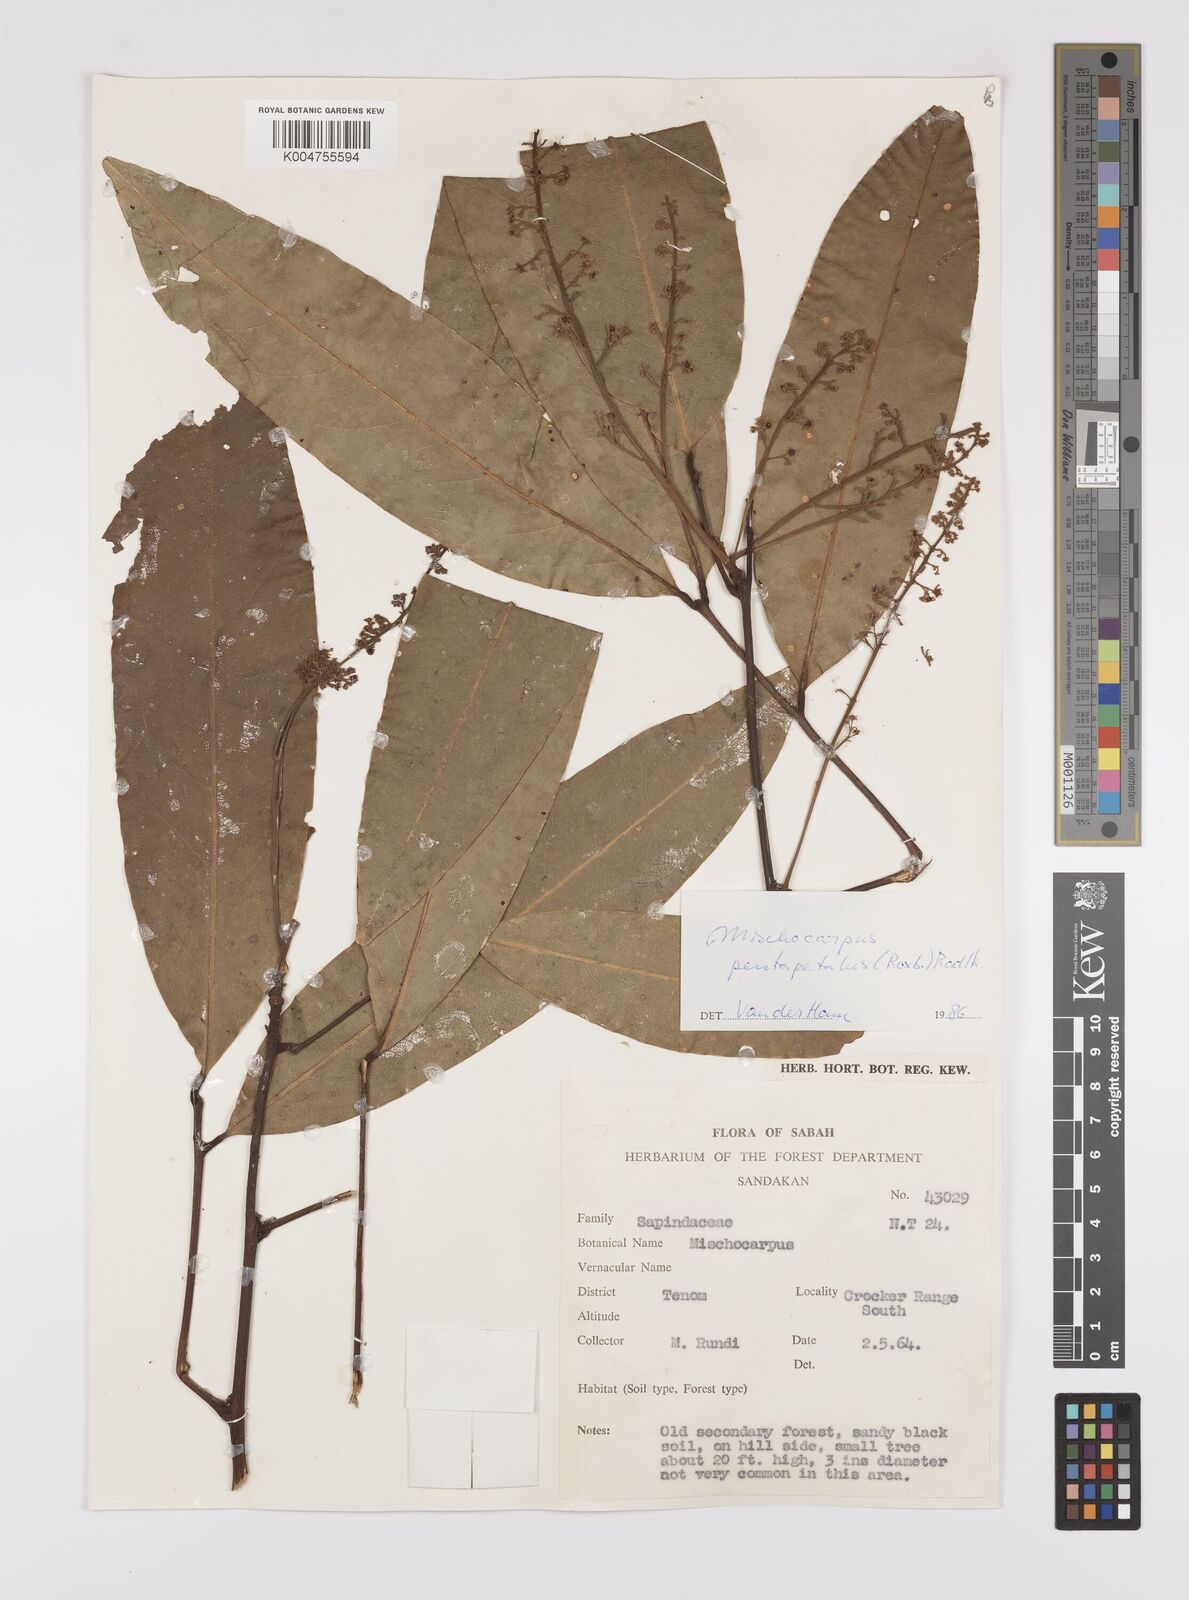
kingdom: Plantae
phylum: Tracheophyta
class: Magnoliopsida
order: Sapindales
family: Sapindaceae
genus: Mischocarpus
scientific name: Mischocarpus pentapetalus
